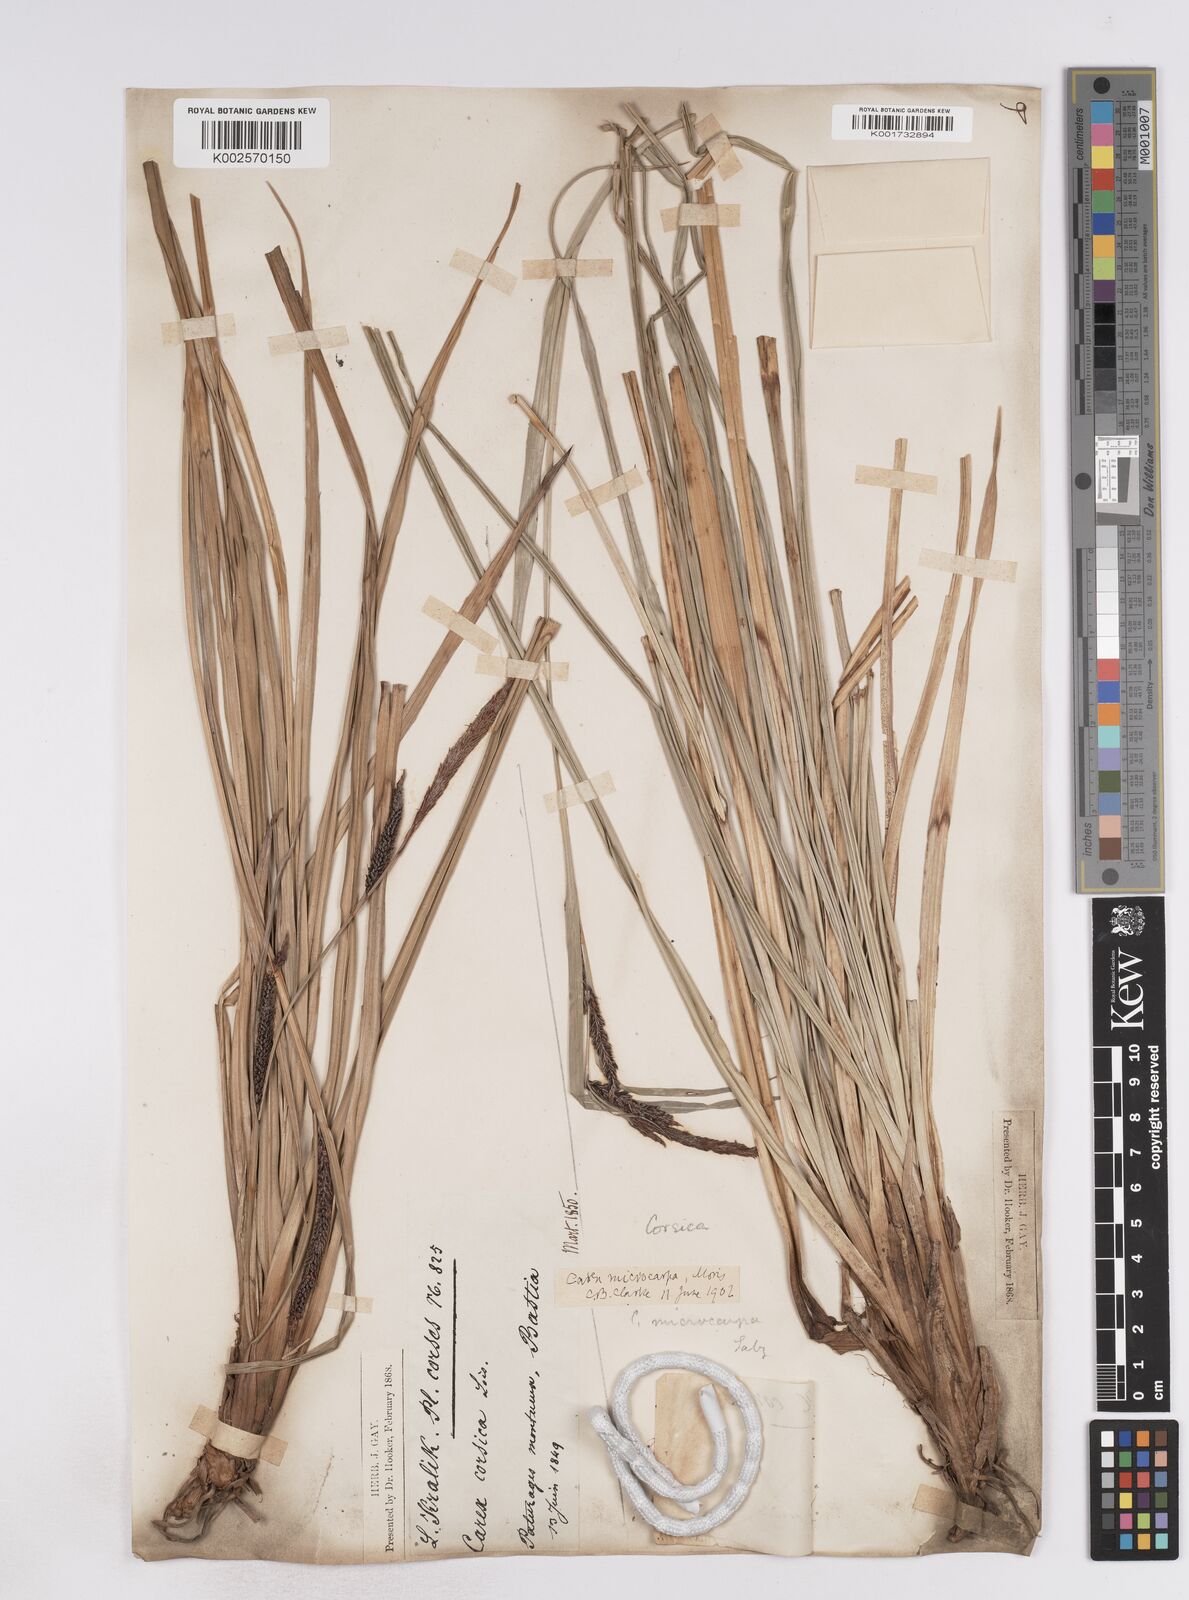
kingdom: Plantae
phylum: Tracheophyta
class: Liliopsida
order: Poales
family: Cyperaceae
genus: Carex
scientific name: Carex microcarpa
